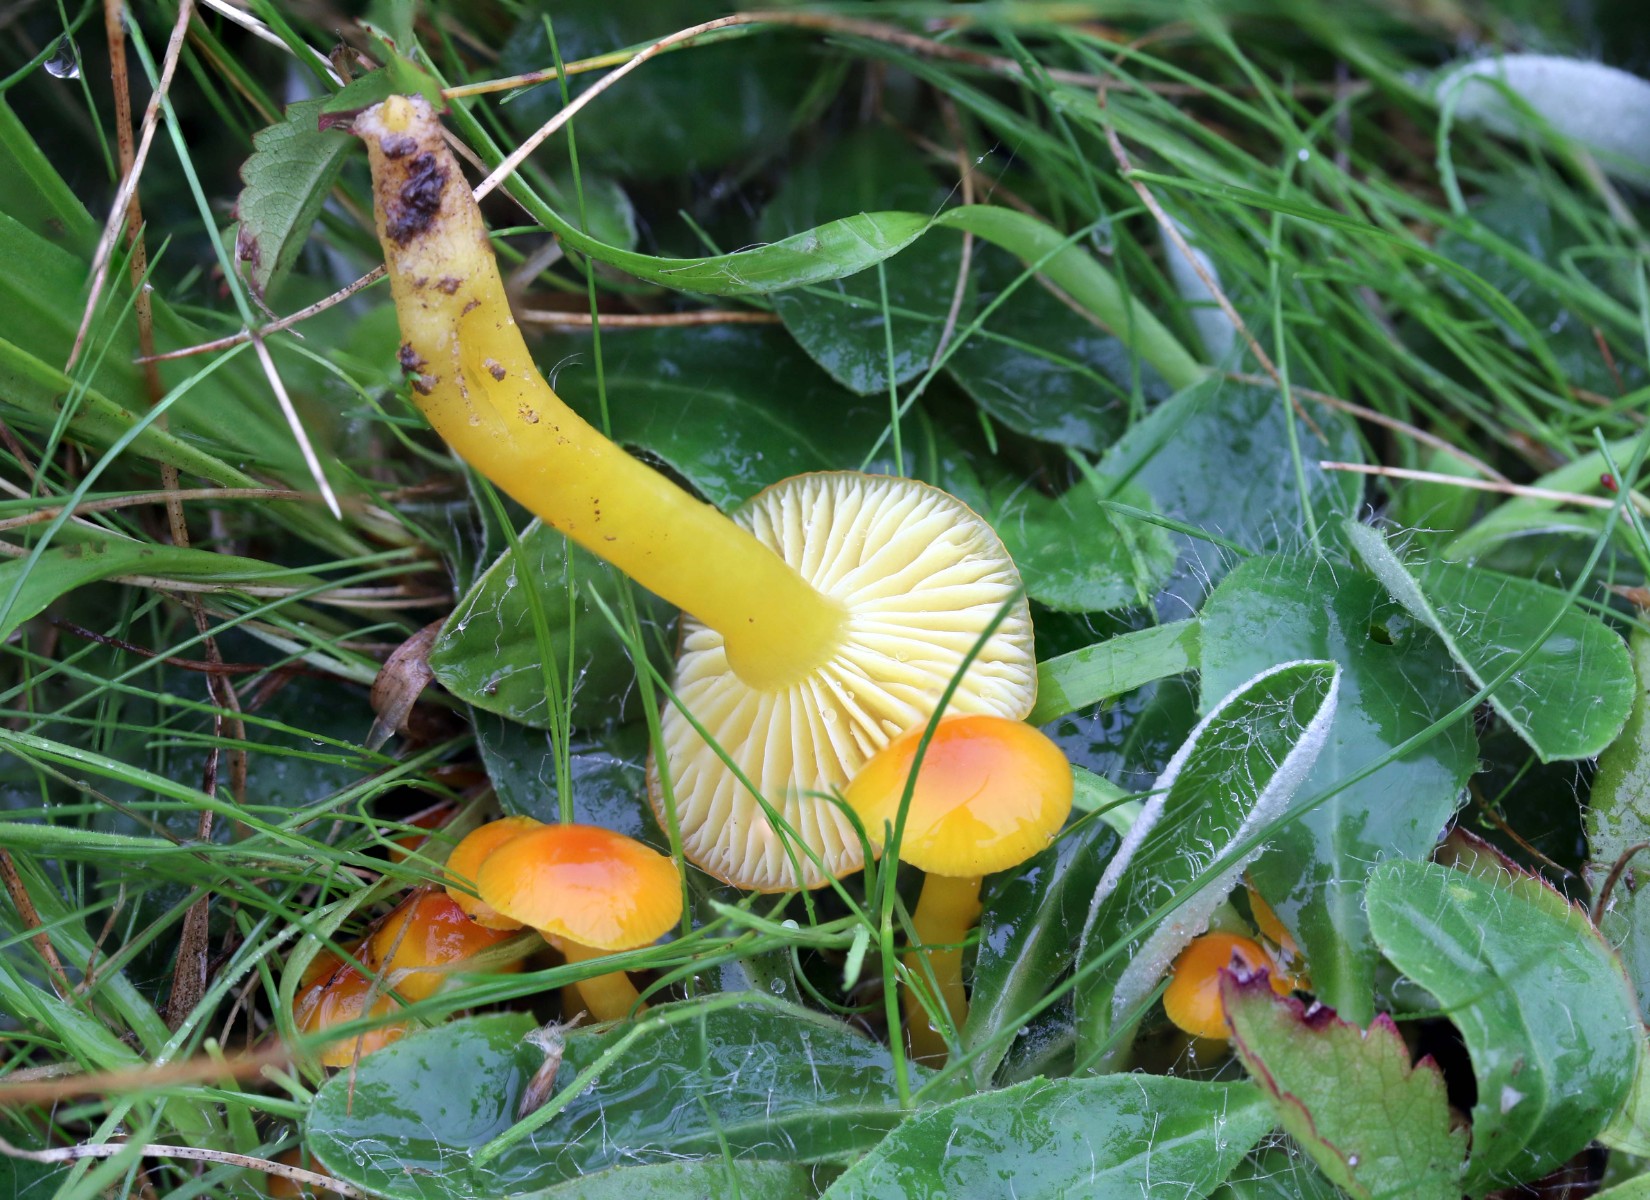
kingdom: Fungi
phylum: Basidiomycota
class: Agaricomycetes
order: Agaricales
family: Hygrophoraceae
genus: Hygrocybe
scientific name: Hygrocybe ceracea
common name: voksgul vokshat
